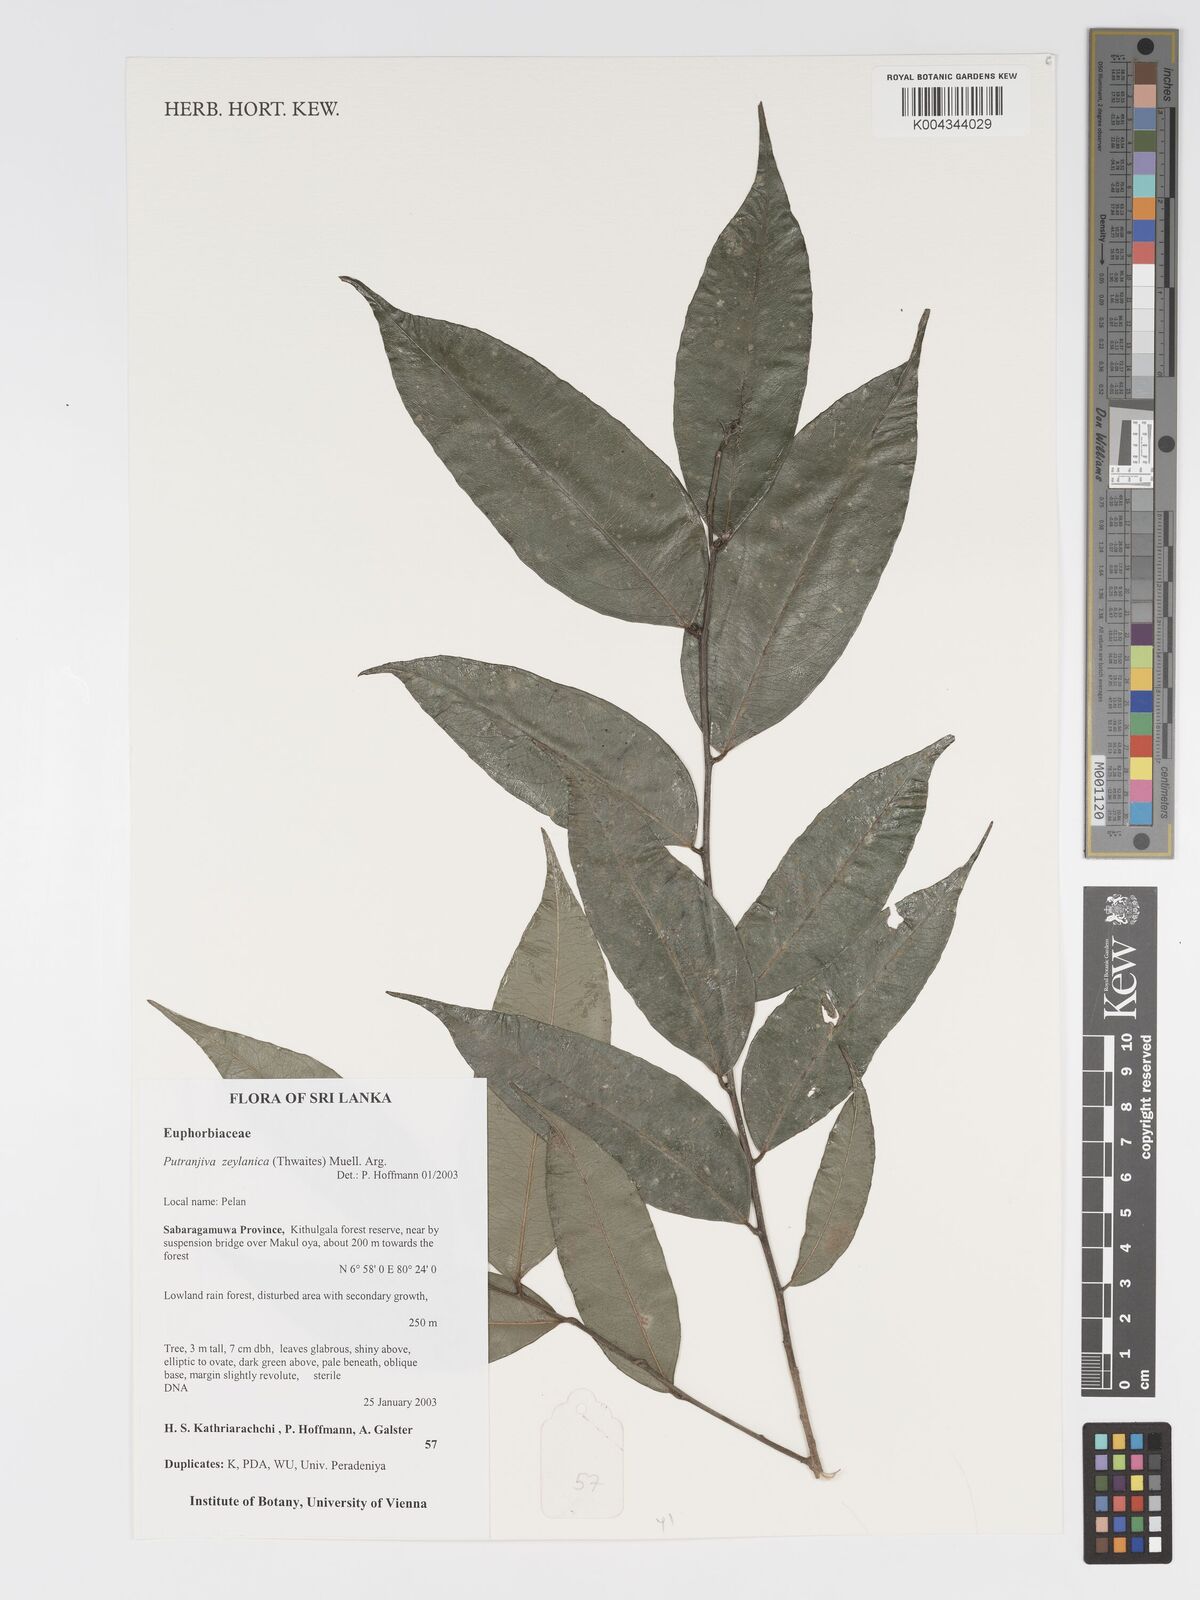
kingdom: Plantae
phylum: Tracheophyta
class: Magnoliopsida
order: Malpighiales
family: Putranjivaceae
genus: Putranjiva
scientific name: Putranjiva zeylanica
